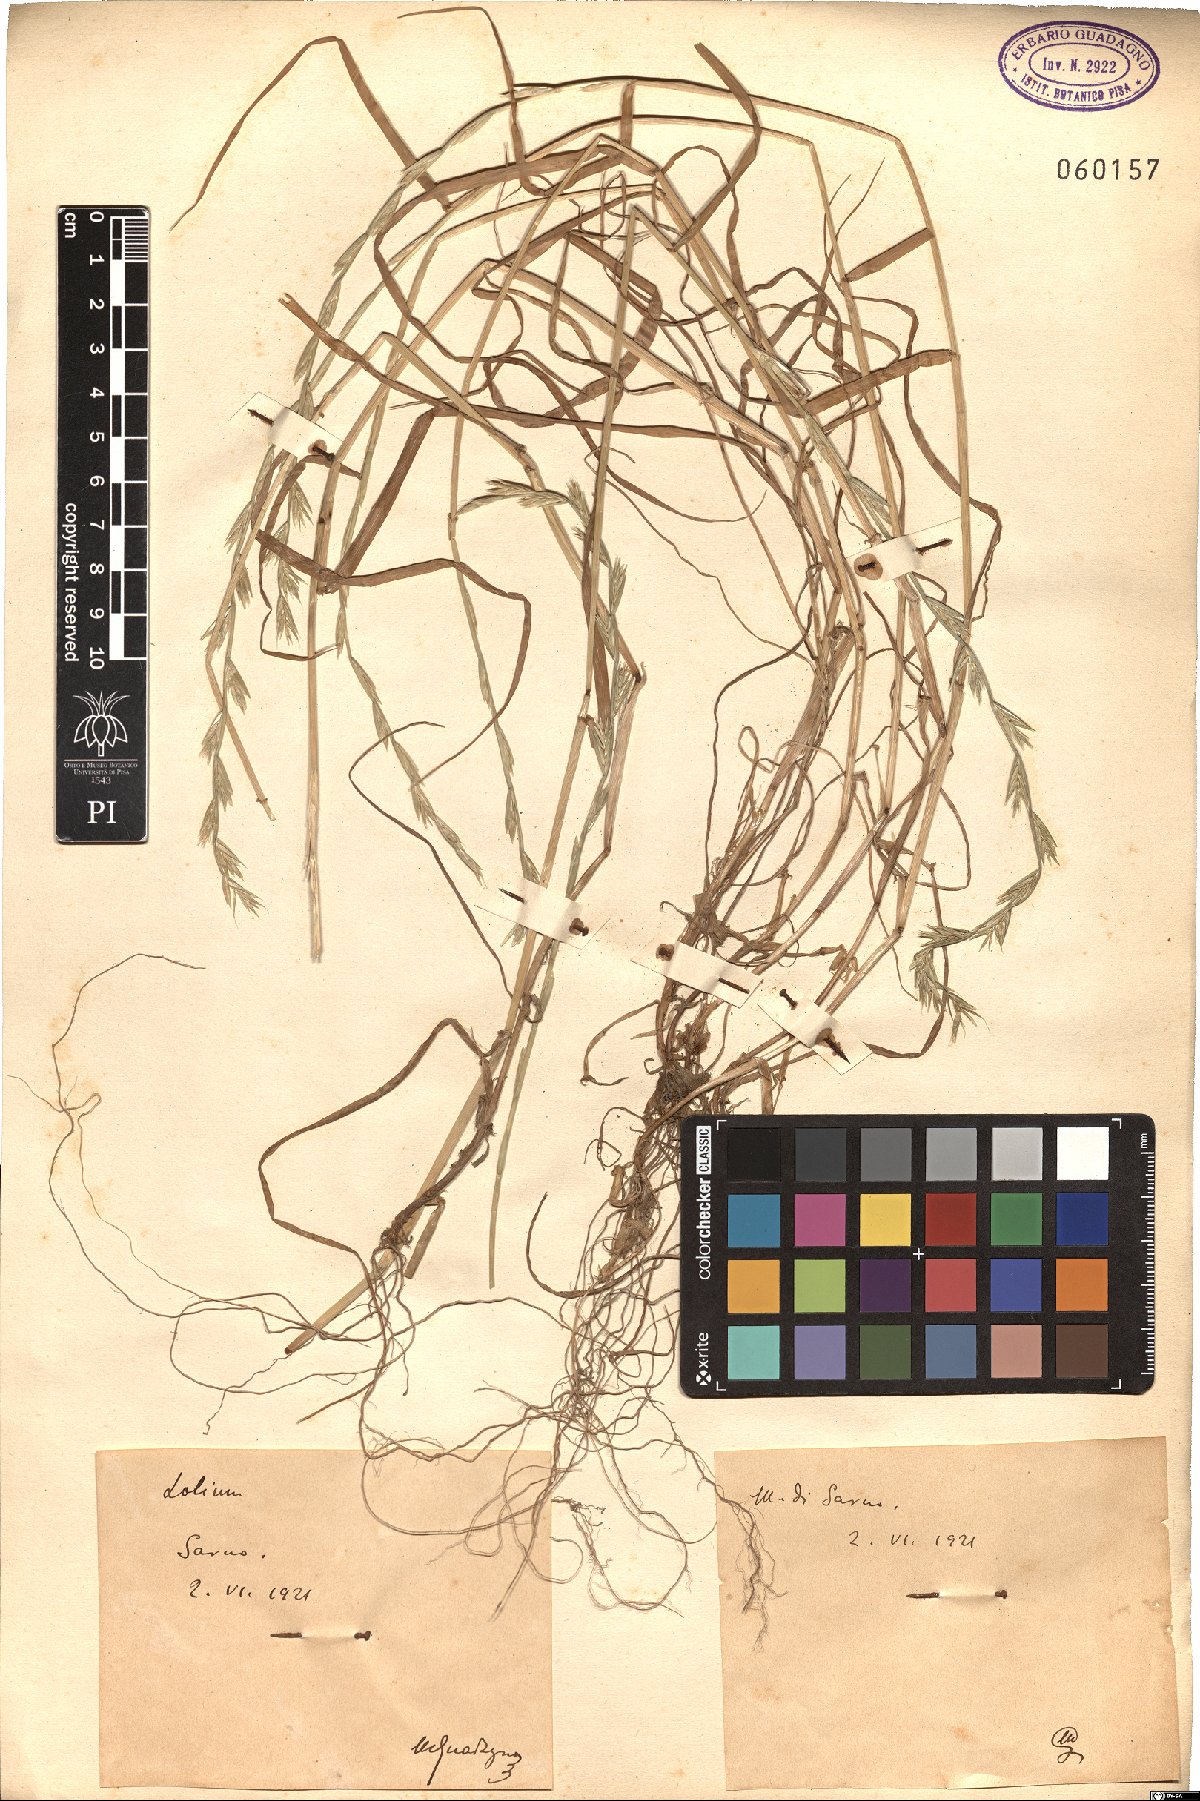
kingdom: Plantae
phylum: Tracheophyta
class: Liliopsida
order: Poales
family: Poaceae
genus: Lolium
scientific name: Lolium
